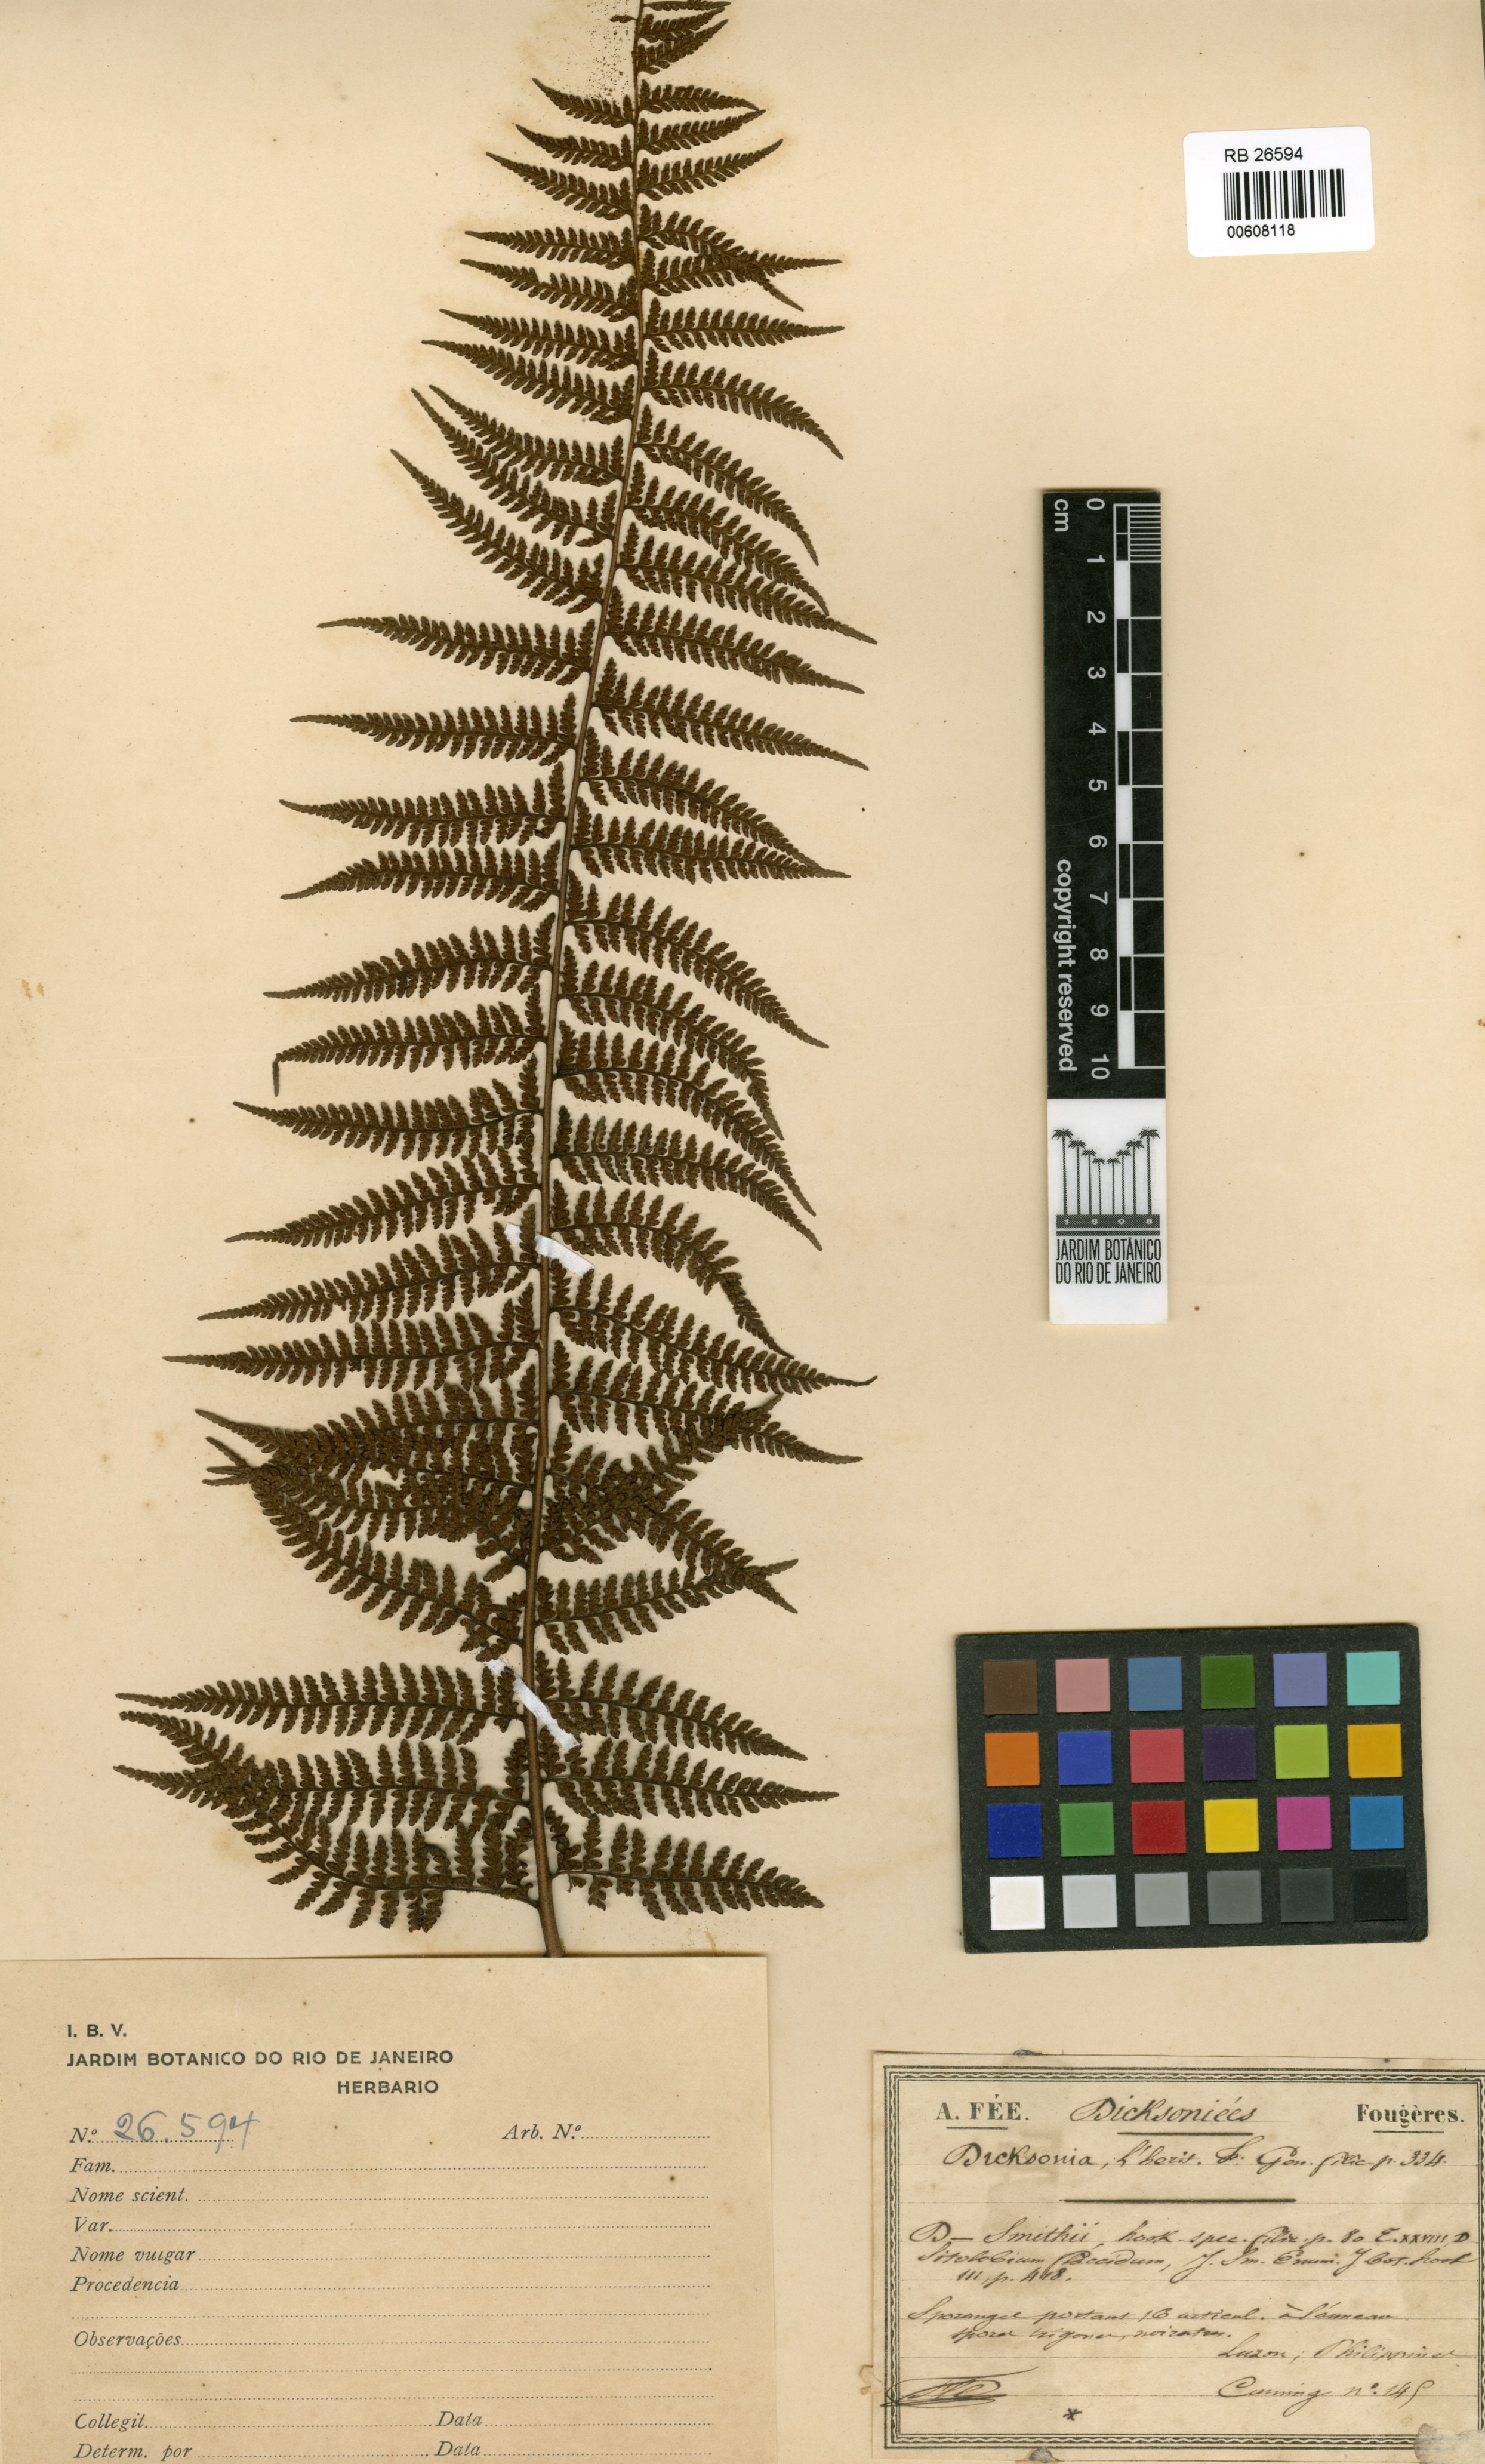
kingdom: Plantae
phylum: Tracheophyta
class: Polypodiopsida
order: Polypodiales
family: Dennstaedtiaceae
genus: Microlepia
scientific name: Microlepia smithii
